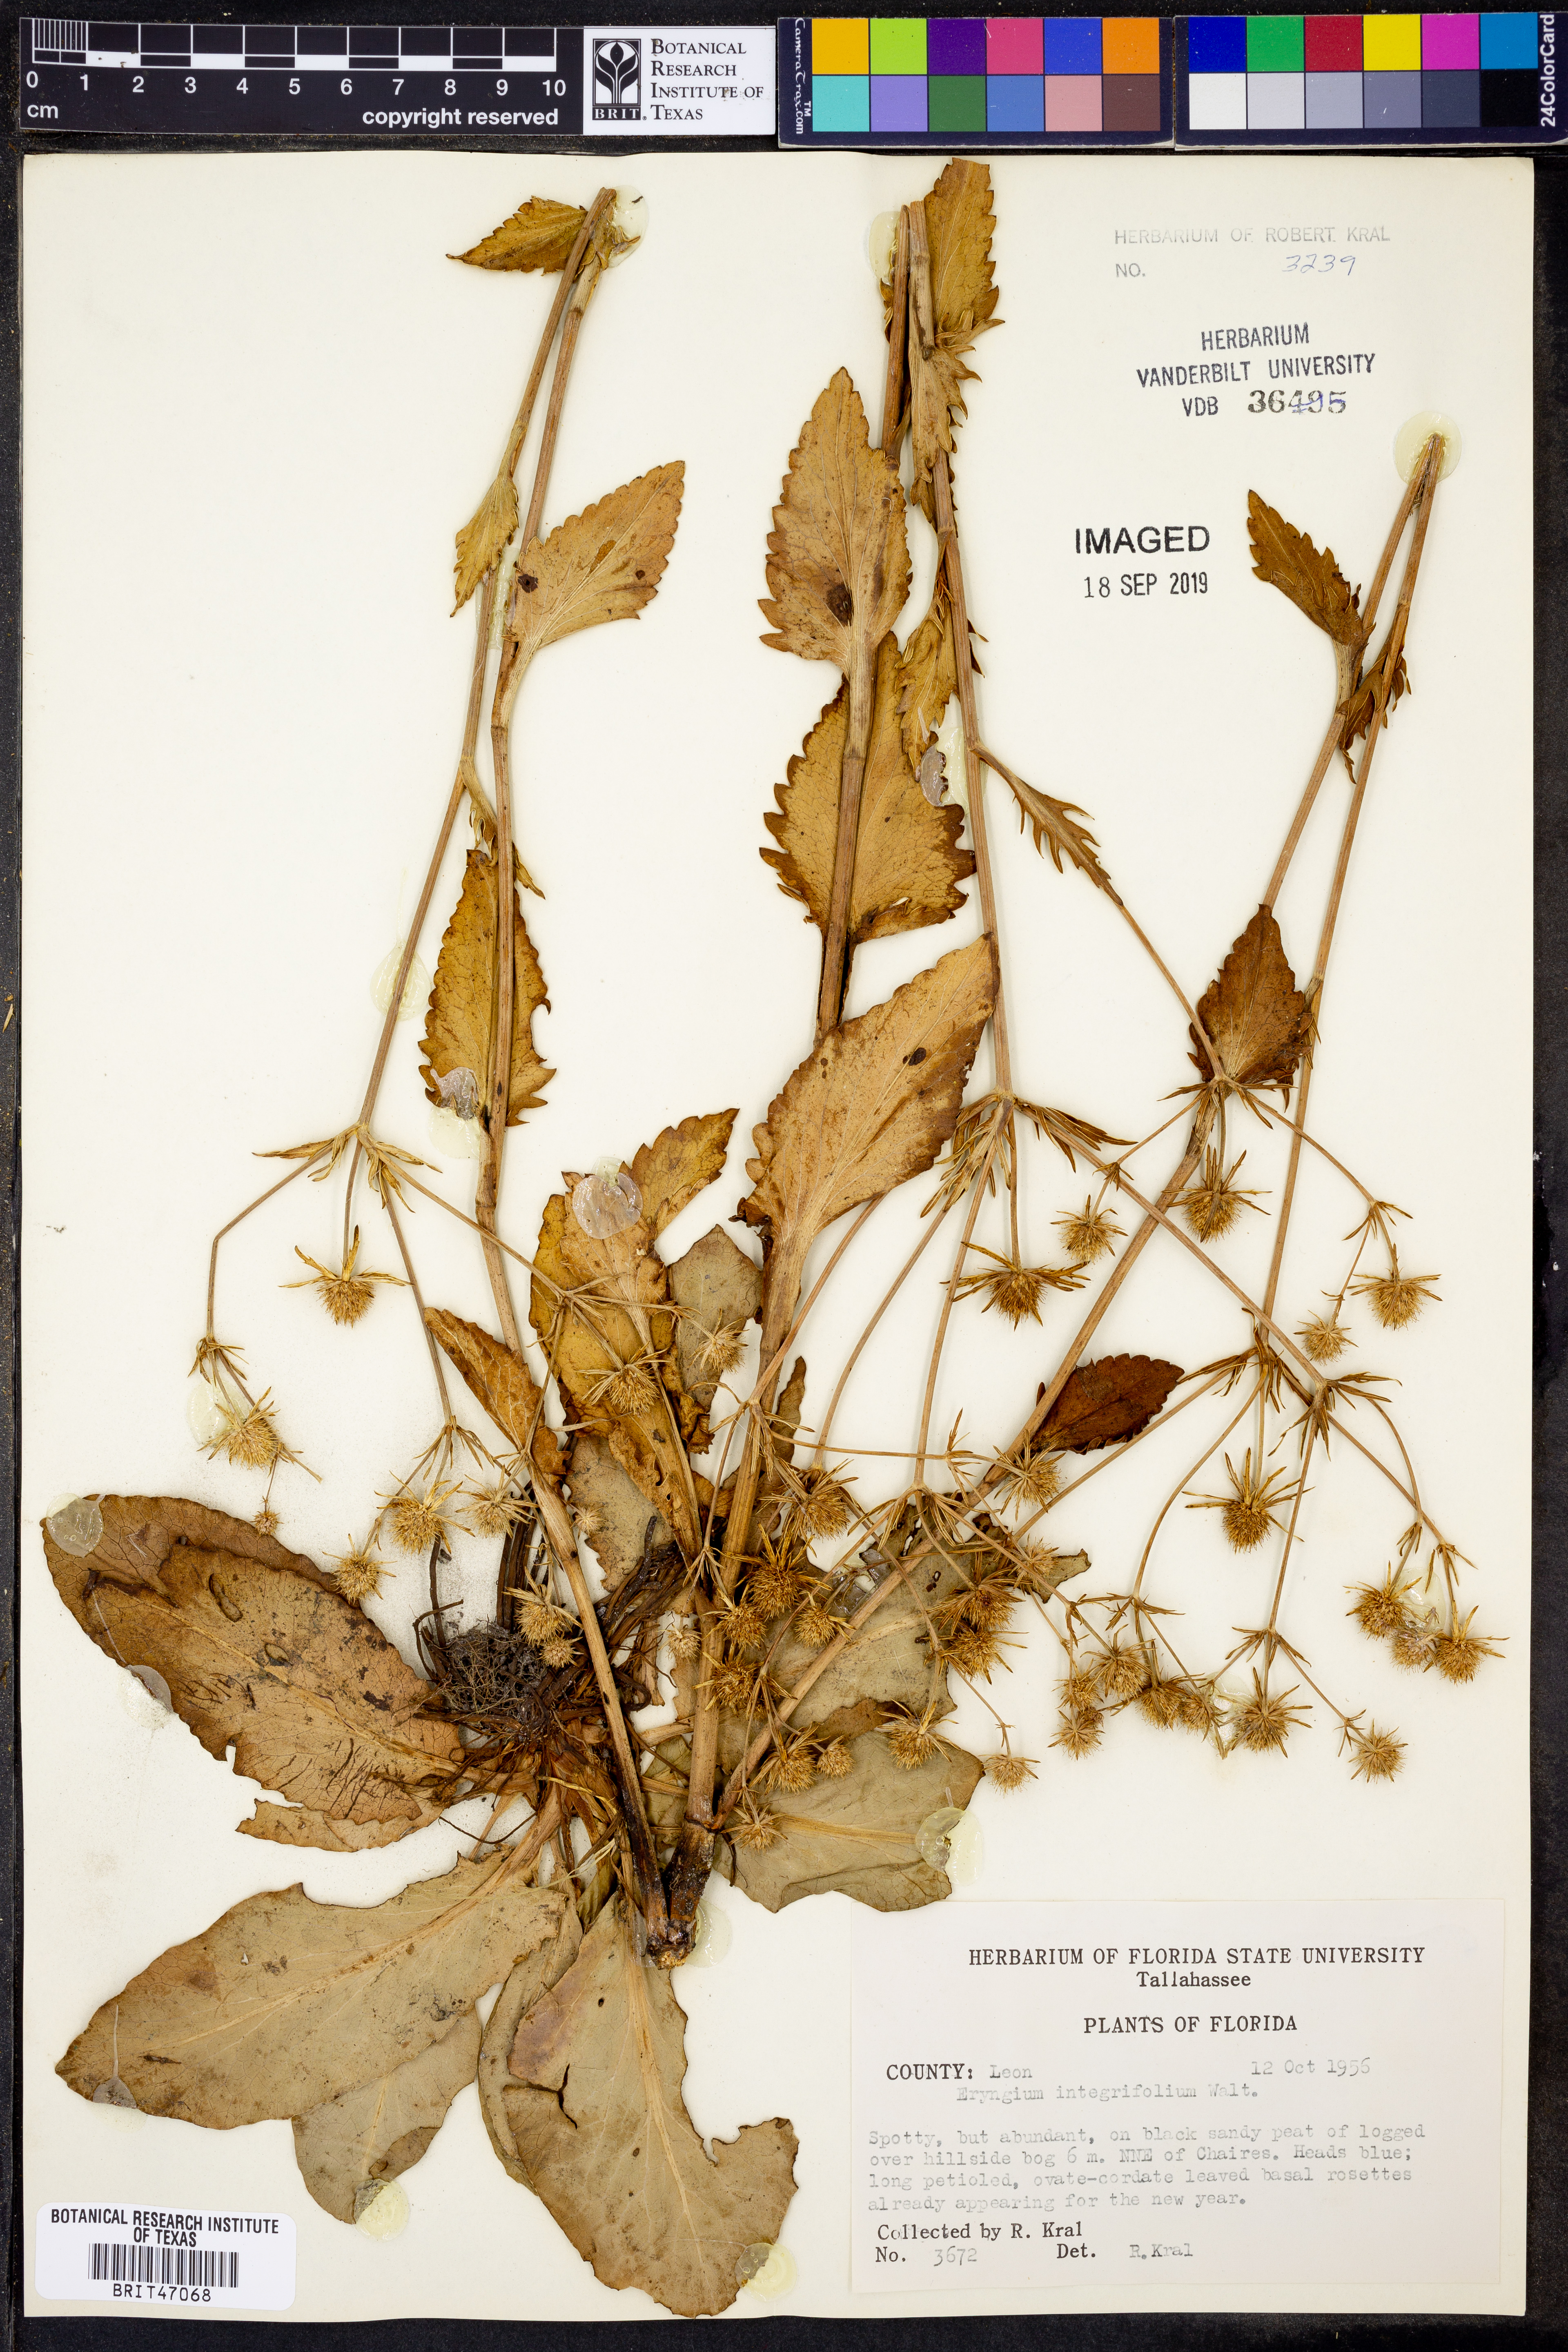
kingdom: Plantae
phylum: Tracheophyta
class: Magnoliopsida
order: Apiales
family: Apiaceae
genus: Eryngium
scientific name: Eryngium integrifolium
